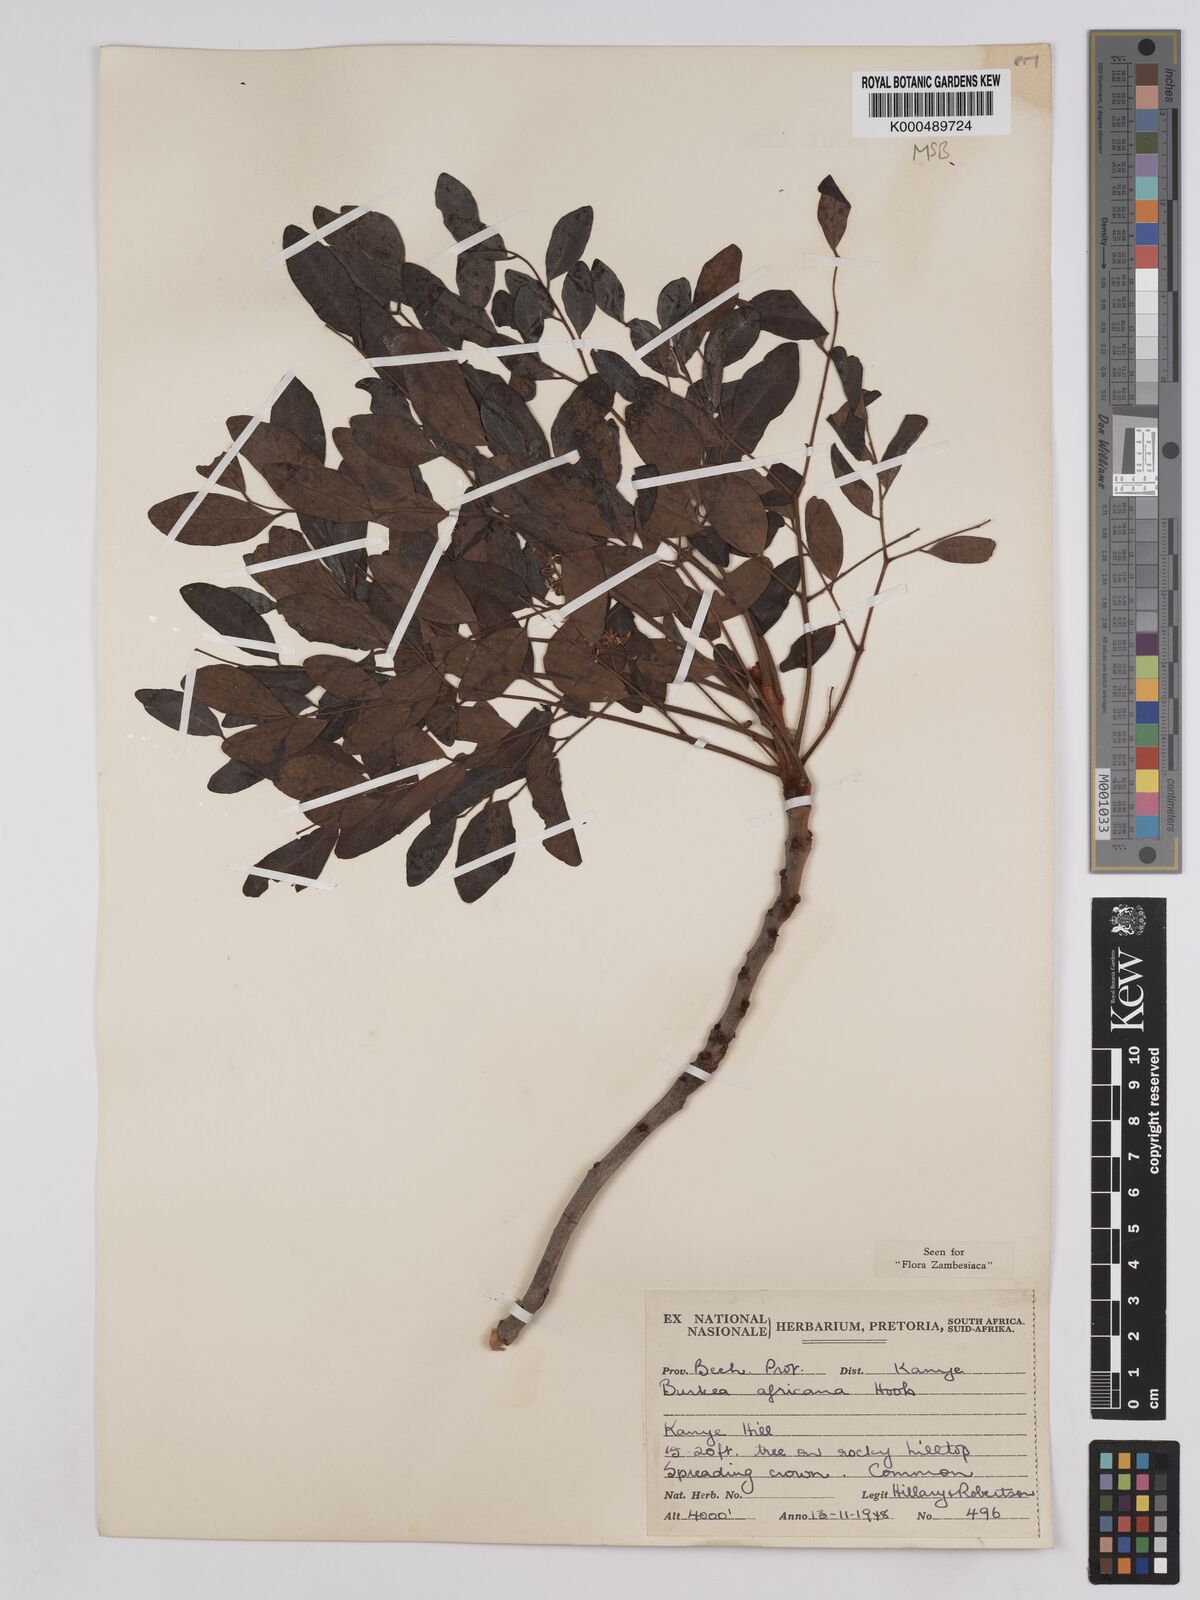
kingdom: Plantae
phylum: Tracheophyta
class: Magnoliopsida
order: Fabales
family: Fabaceae
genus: Burkea
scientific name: Burkea africana
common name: Mkalati tree
